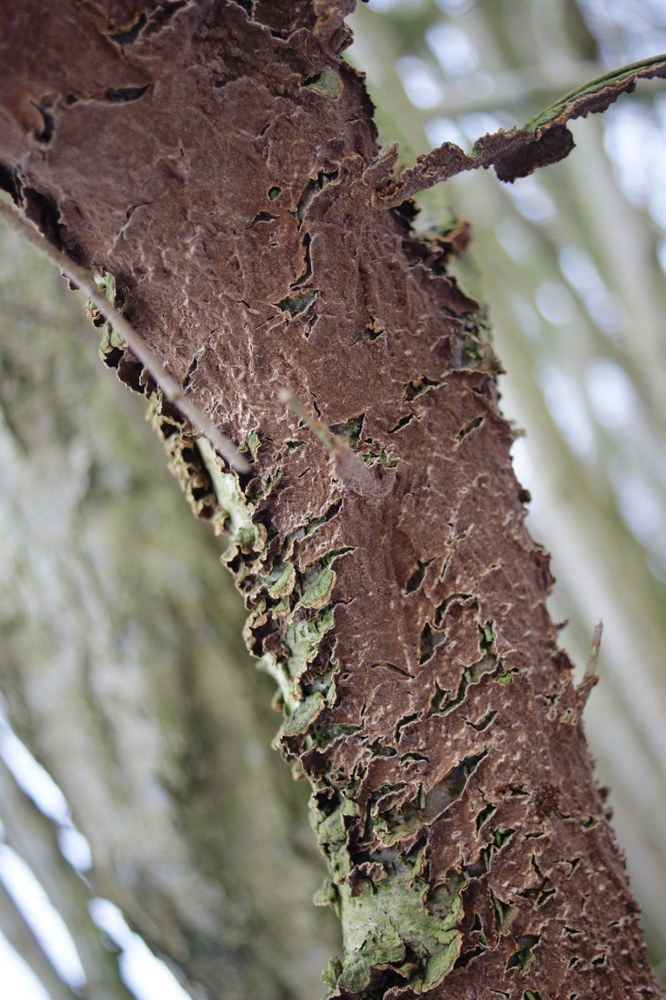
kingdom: Fungi
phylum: Basidiomycota
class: Agaricomycetes
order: Hymenochaetales
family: Hymenochaetaceae
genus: Hydnoporia
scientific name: Hydnoporia tabacina
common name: tobaksbrun ruslædersvamp
